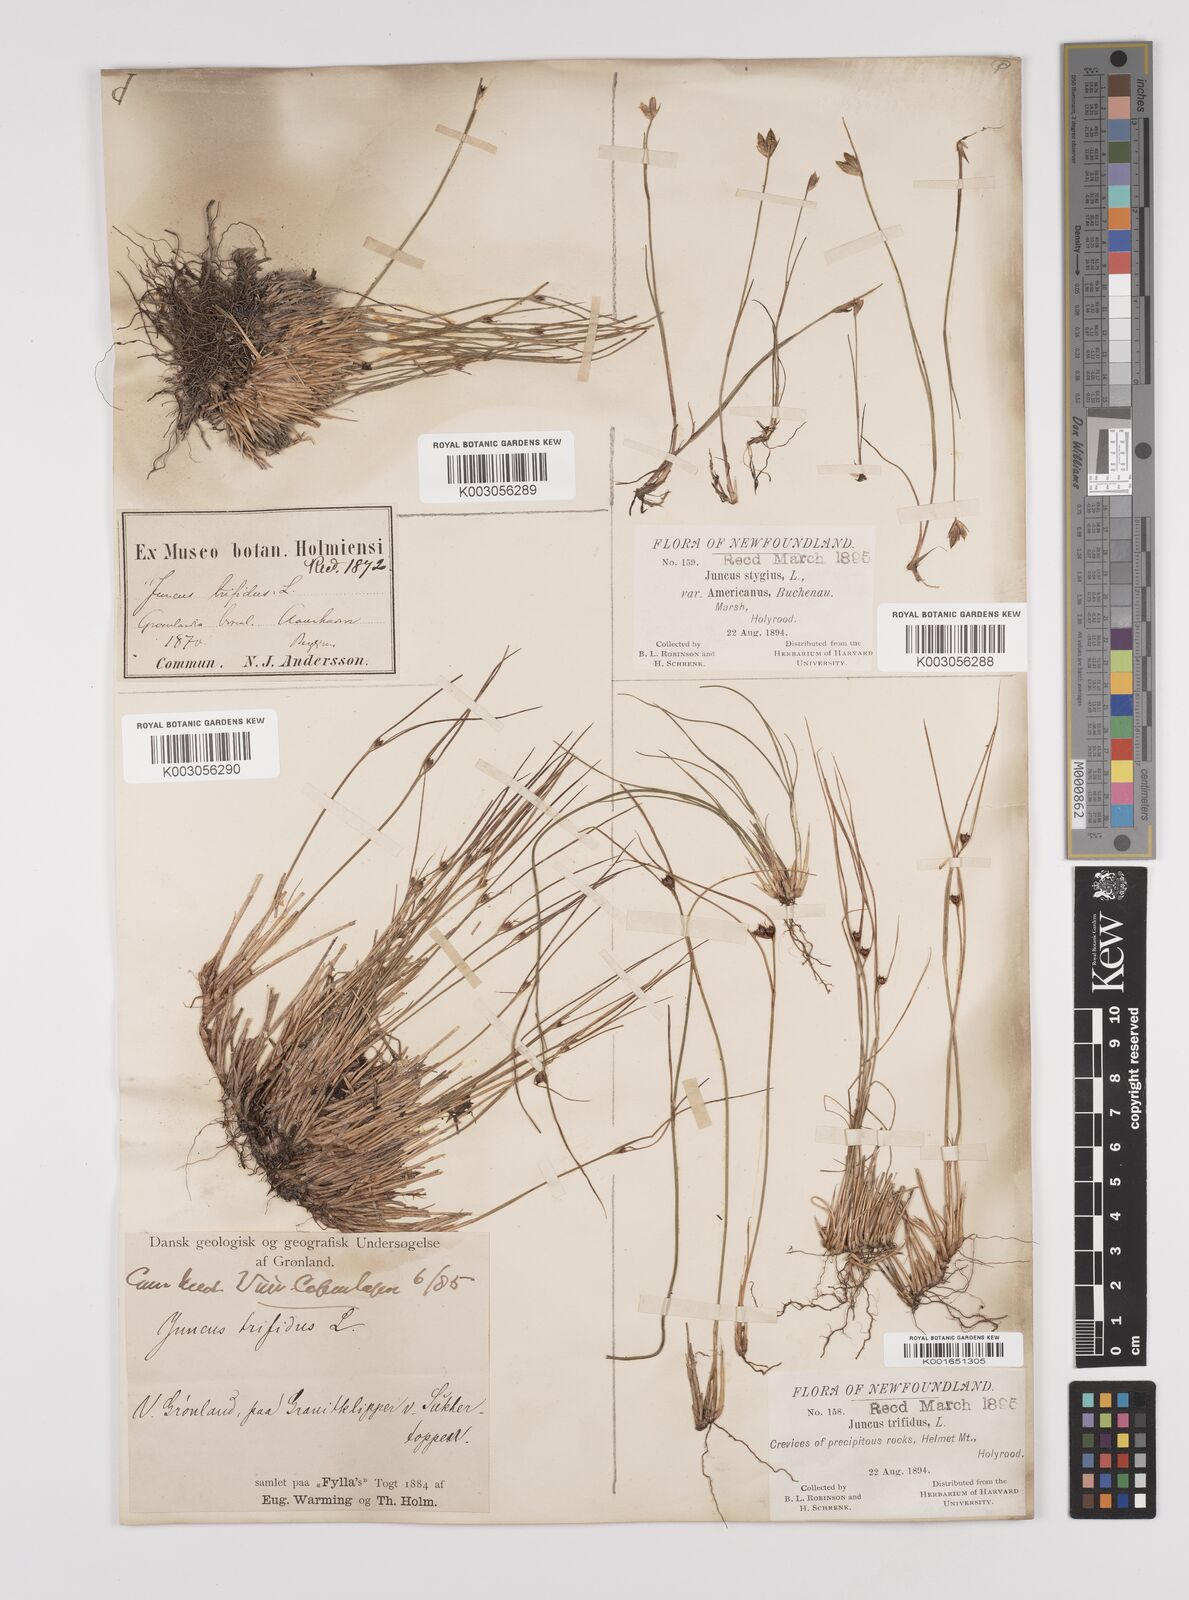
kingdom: Plantae
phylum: Tracheophyta
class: Liliopsida
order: Poales
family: Juncaceae
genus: Oreojuncus
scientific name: Oreojuncus trifidus
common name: Highland rush
